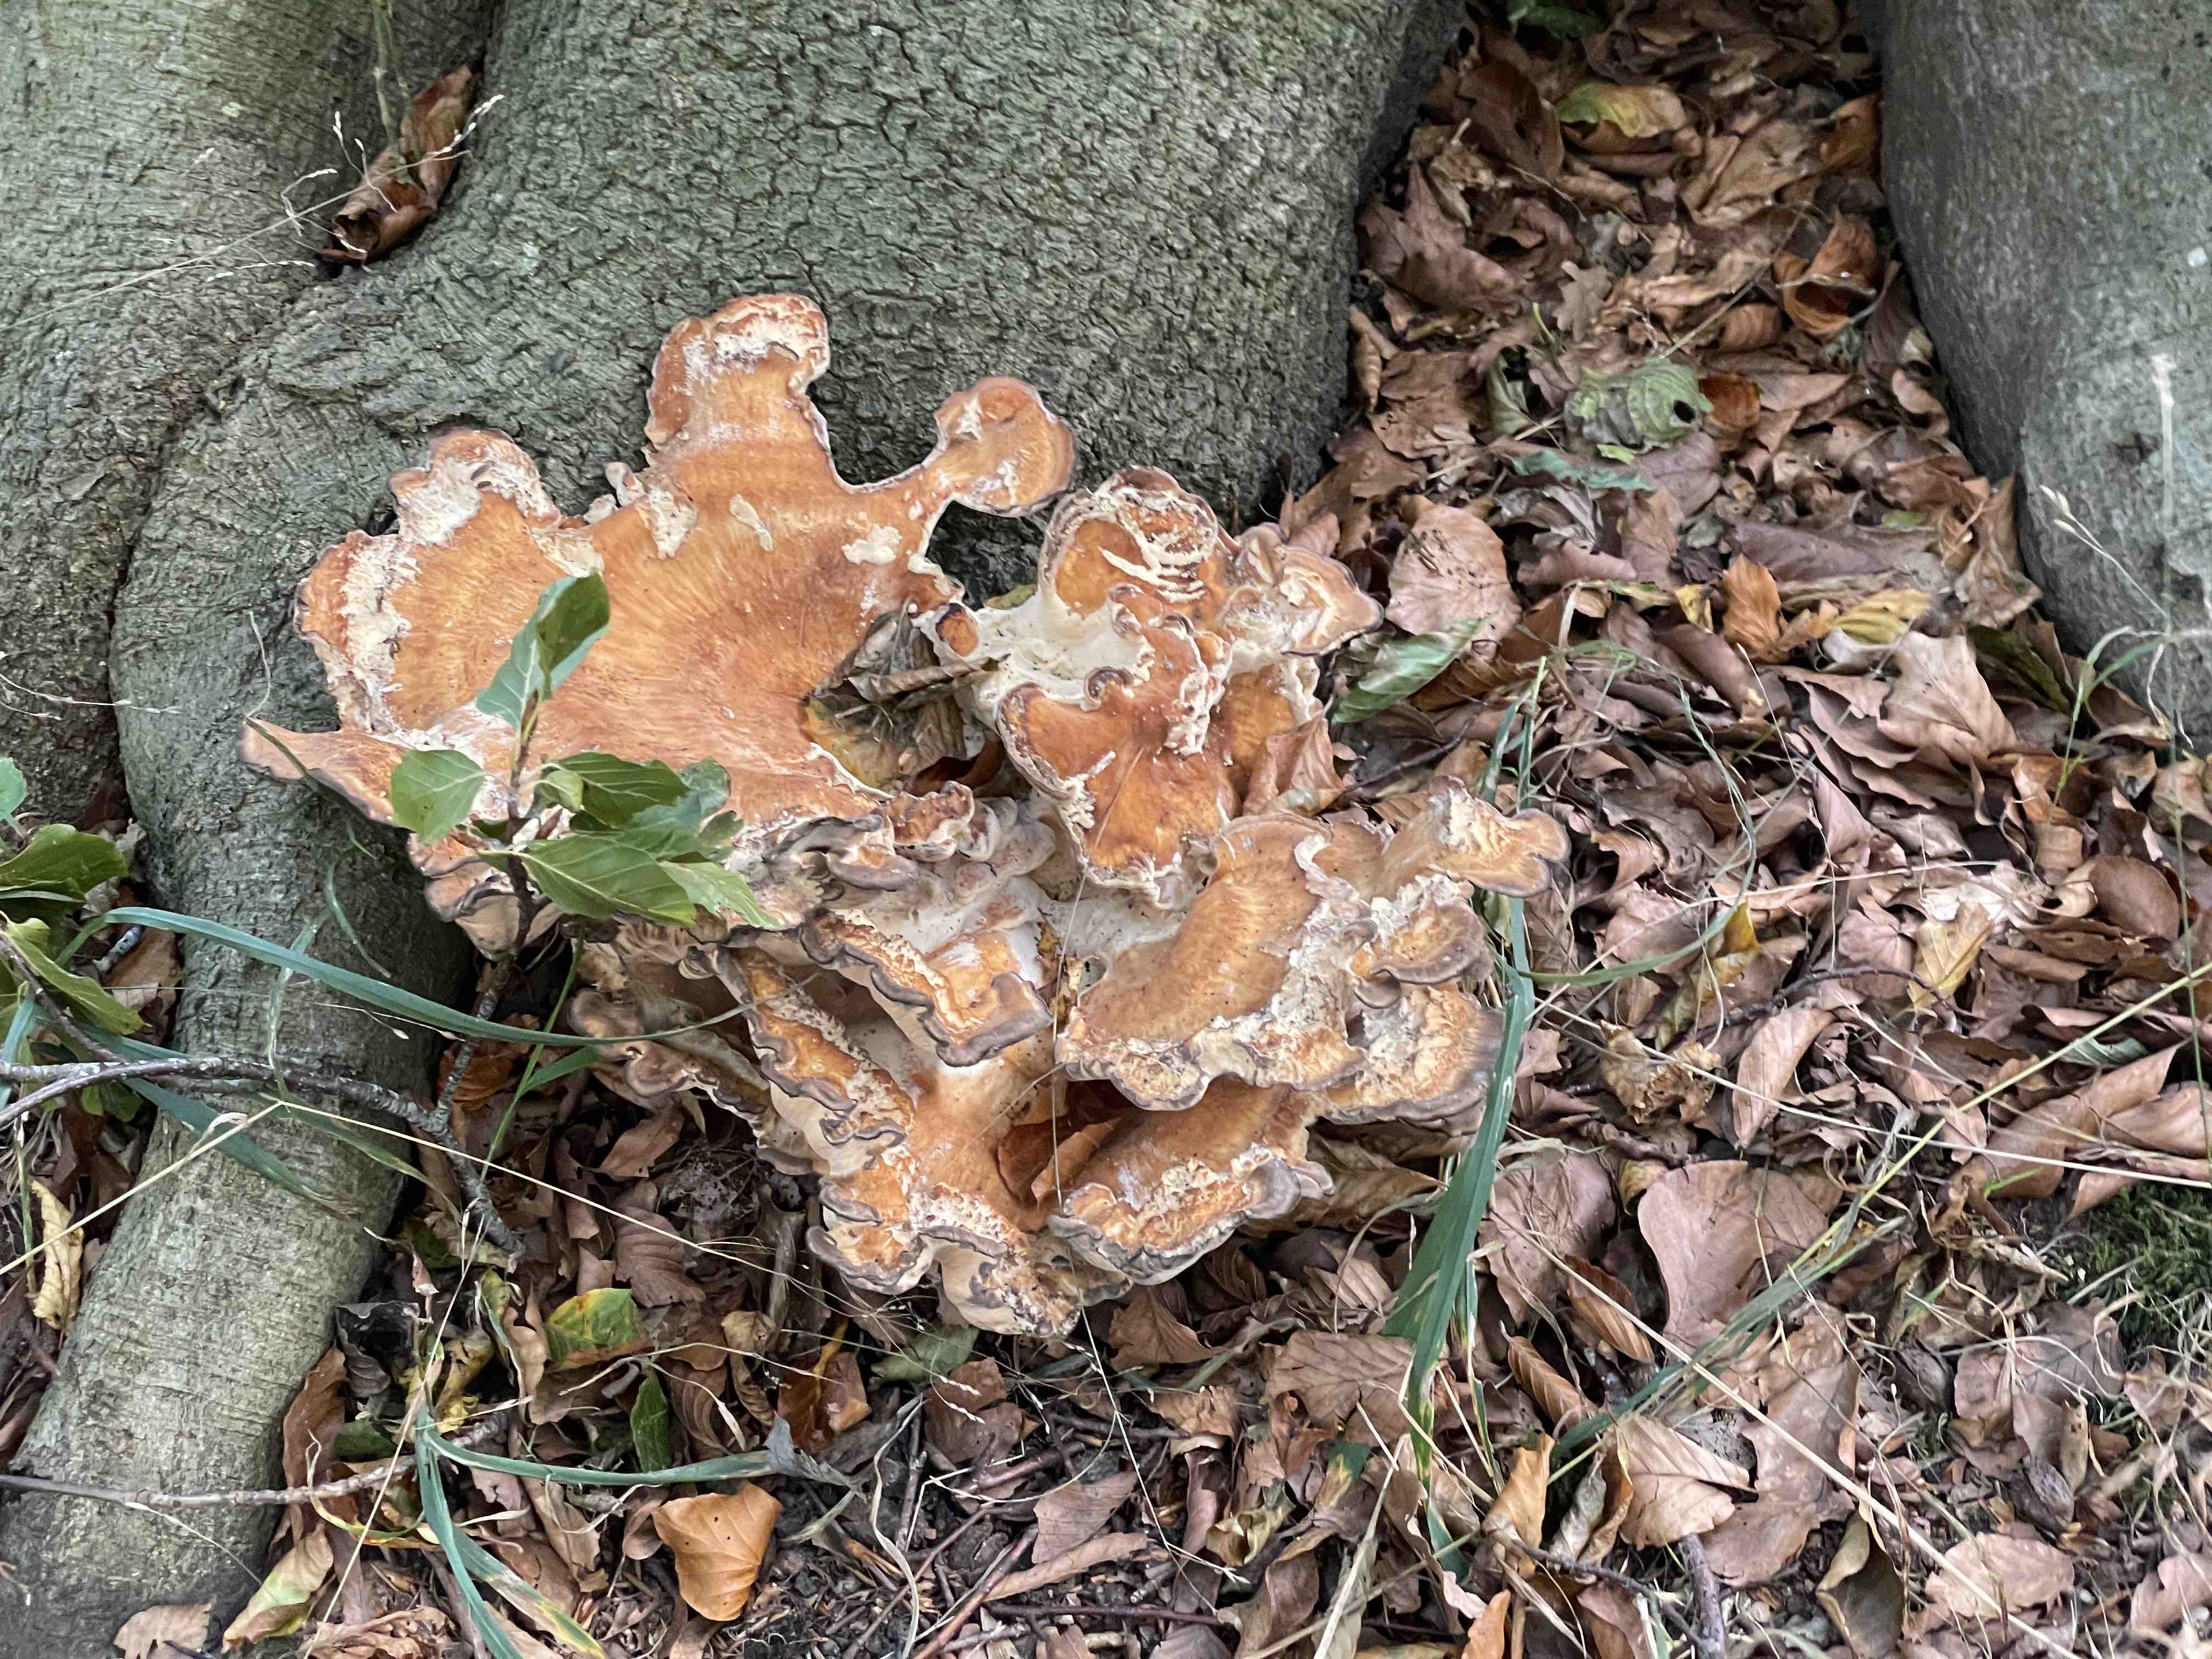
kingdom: Fungi
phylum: Basidiomycota
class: Agaricomycetes
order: Polyporales
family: Meripilaceae
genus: Meripilus
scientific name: Meripilus giganteus
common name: kæmpeporesvamp
